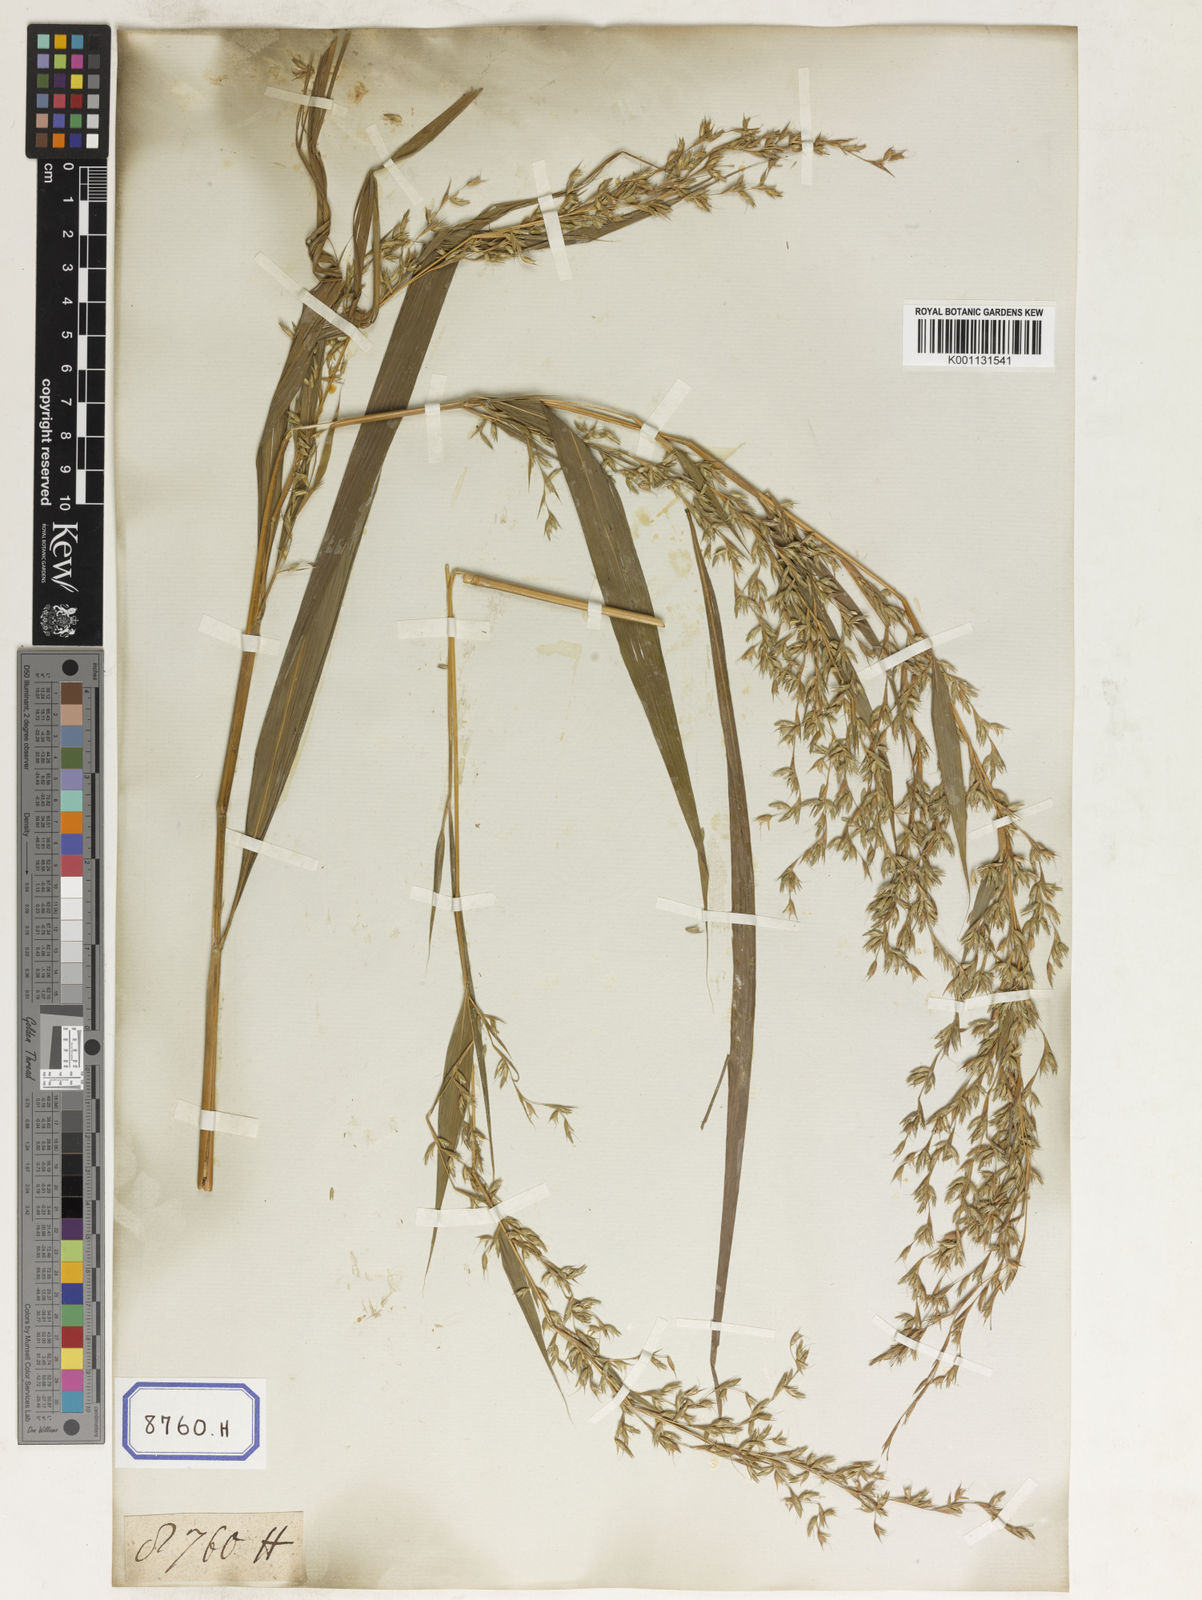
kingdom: Plantae
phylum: Tracheophyta
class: Liliopsida
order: Poales
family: Poaceae
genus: Apluda
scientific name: Apluda
